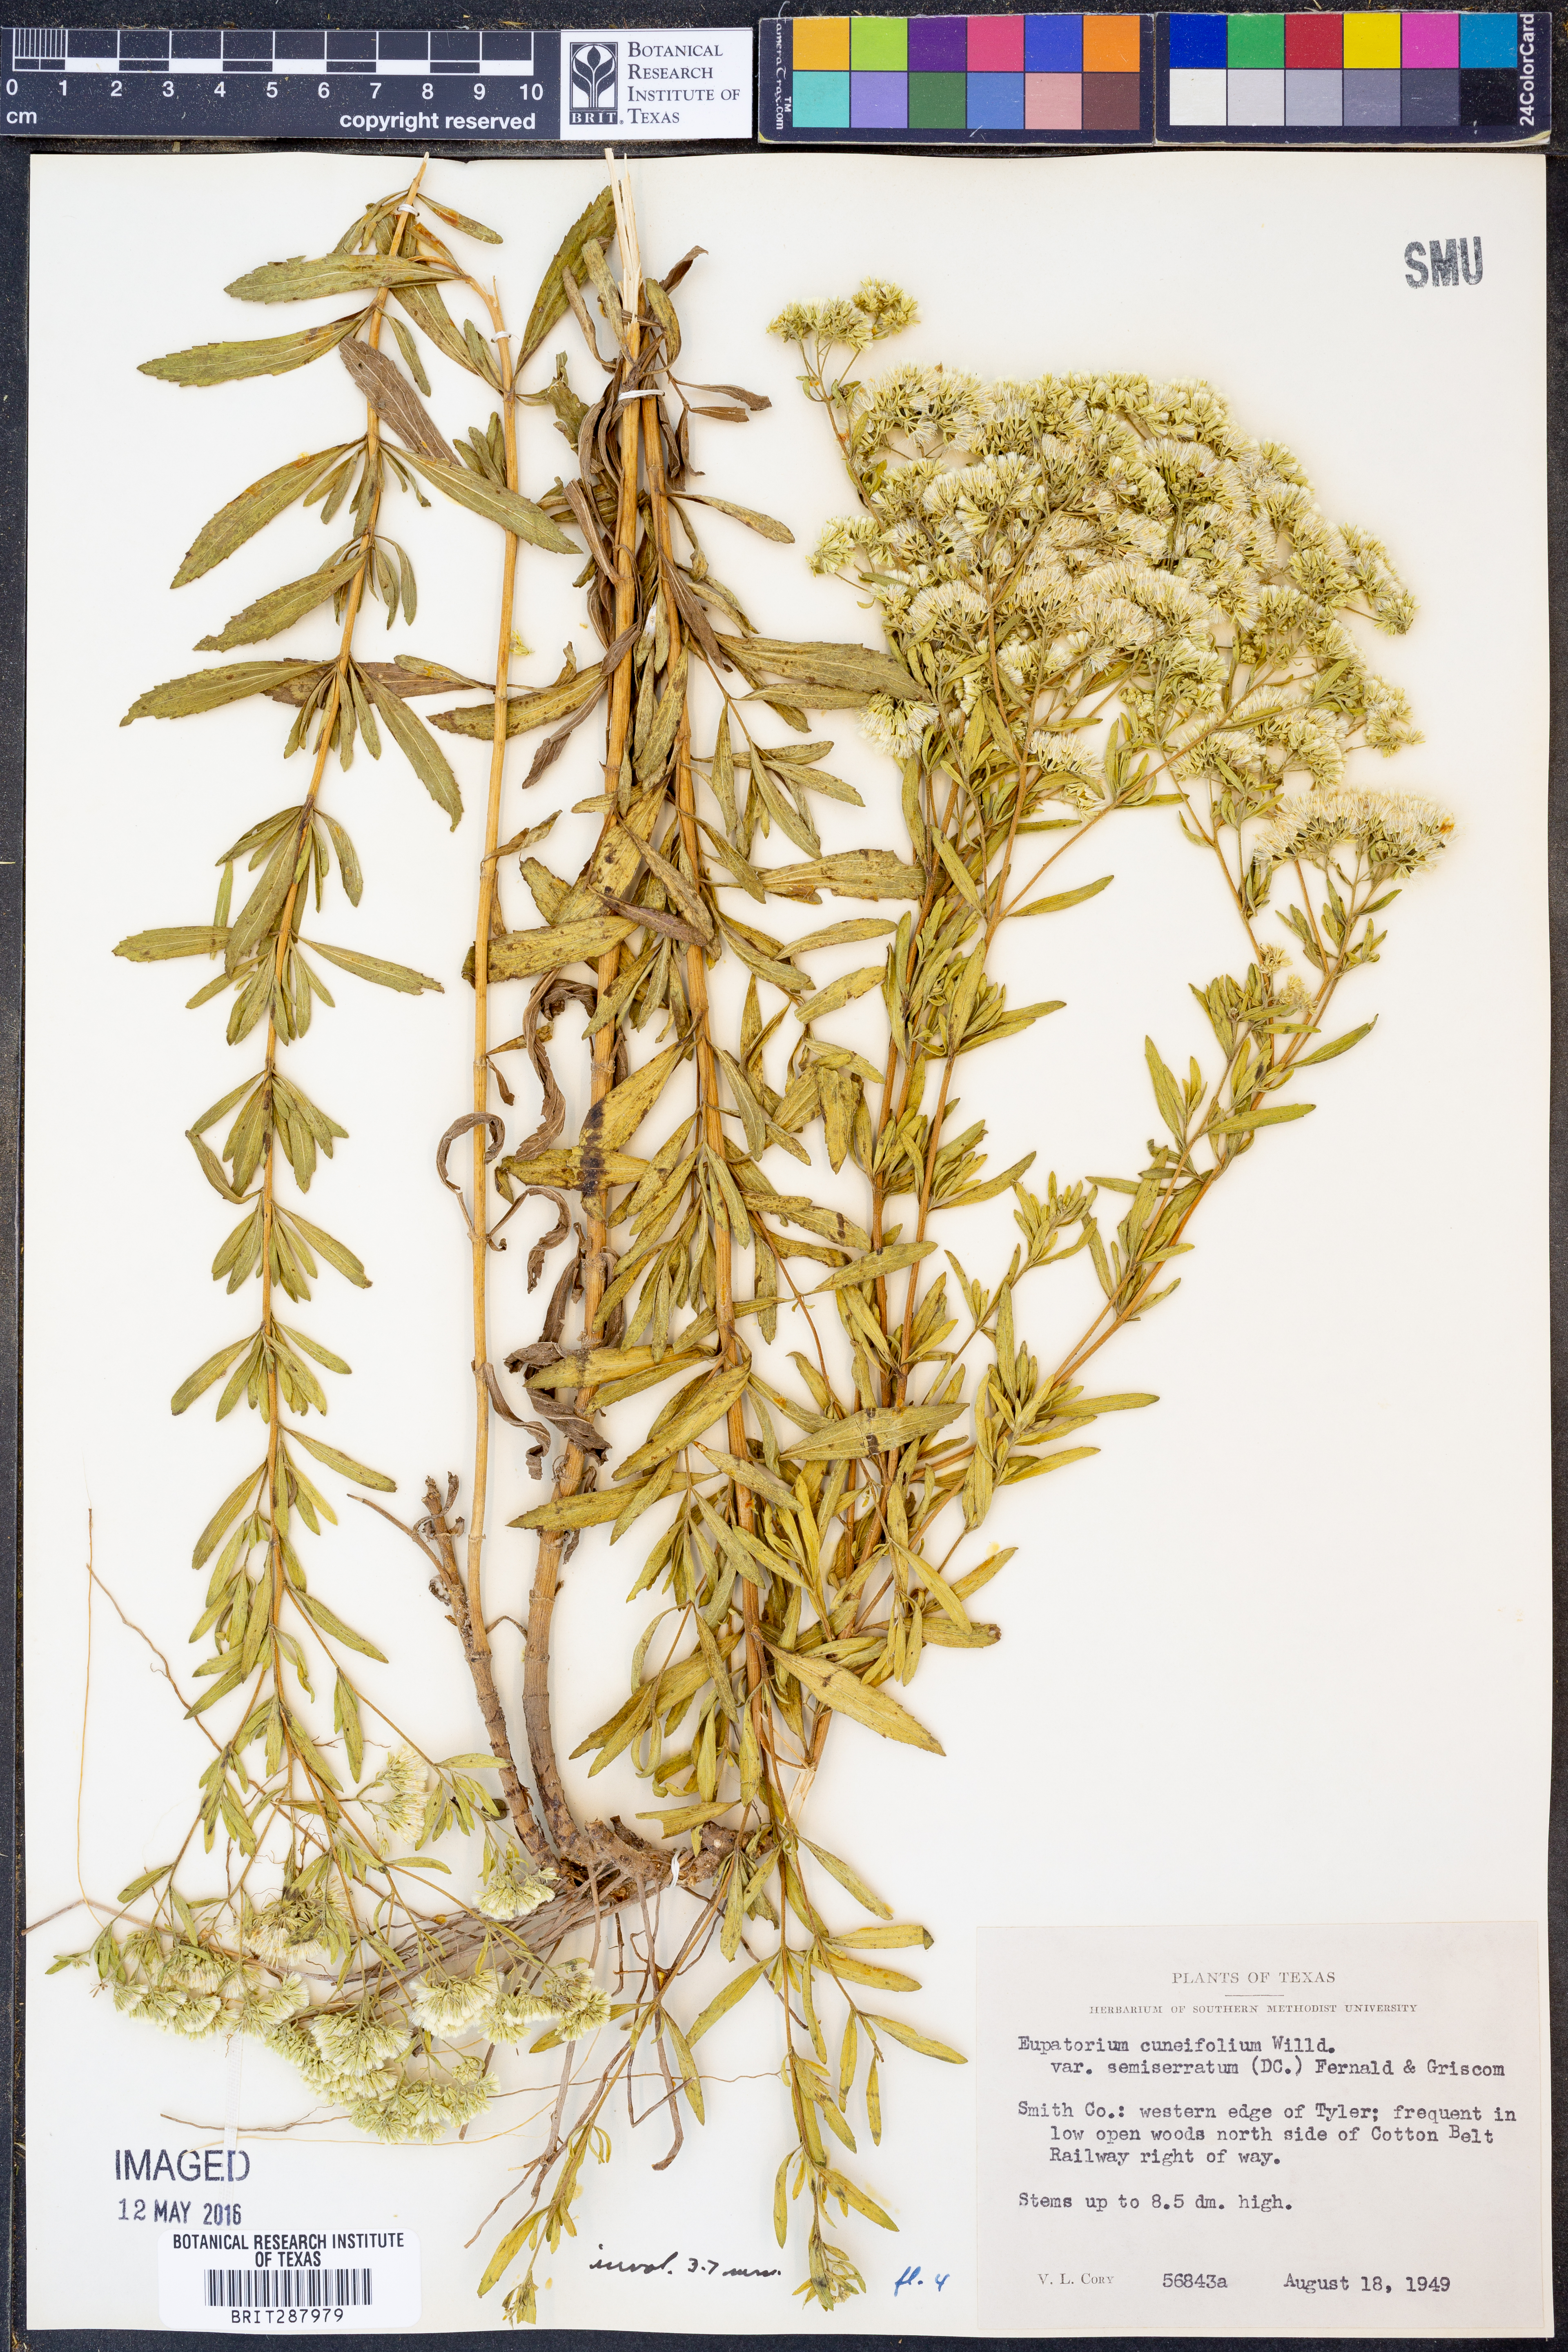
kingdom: Plantae
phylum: Tracheophyta
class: Magnoliopsida
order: Asterales
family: Asteraceae
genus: Eupatorium
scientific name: Eupatorium semiserratum
